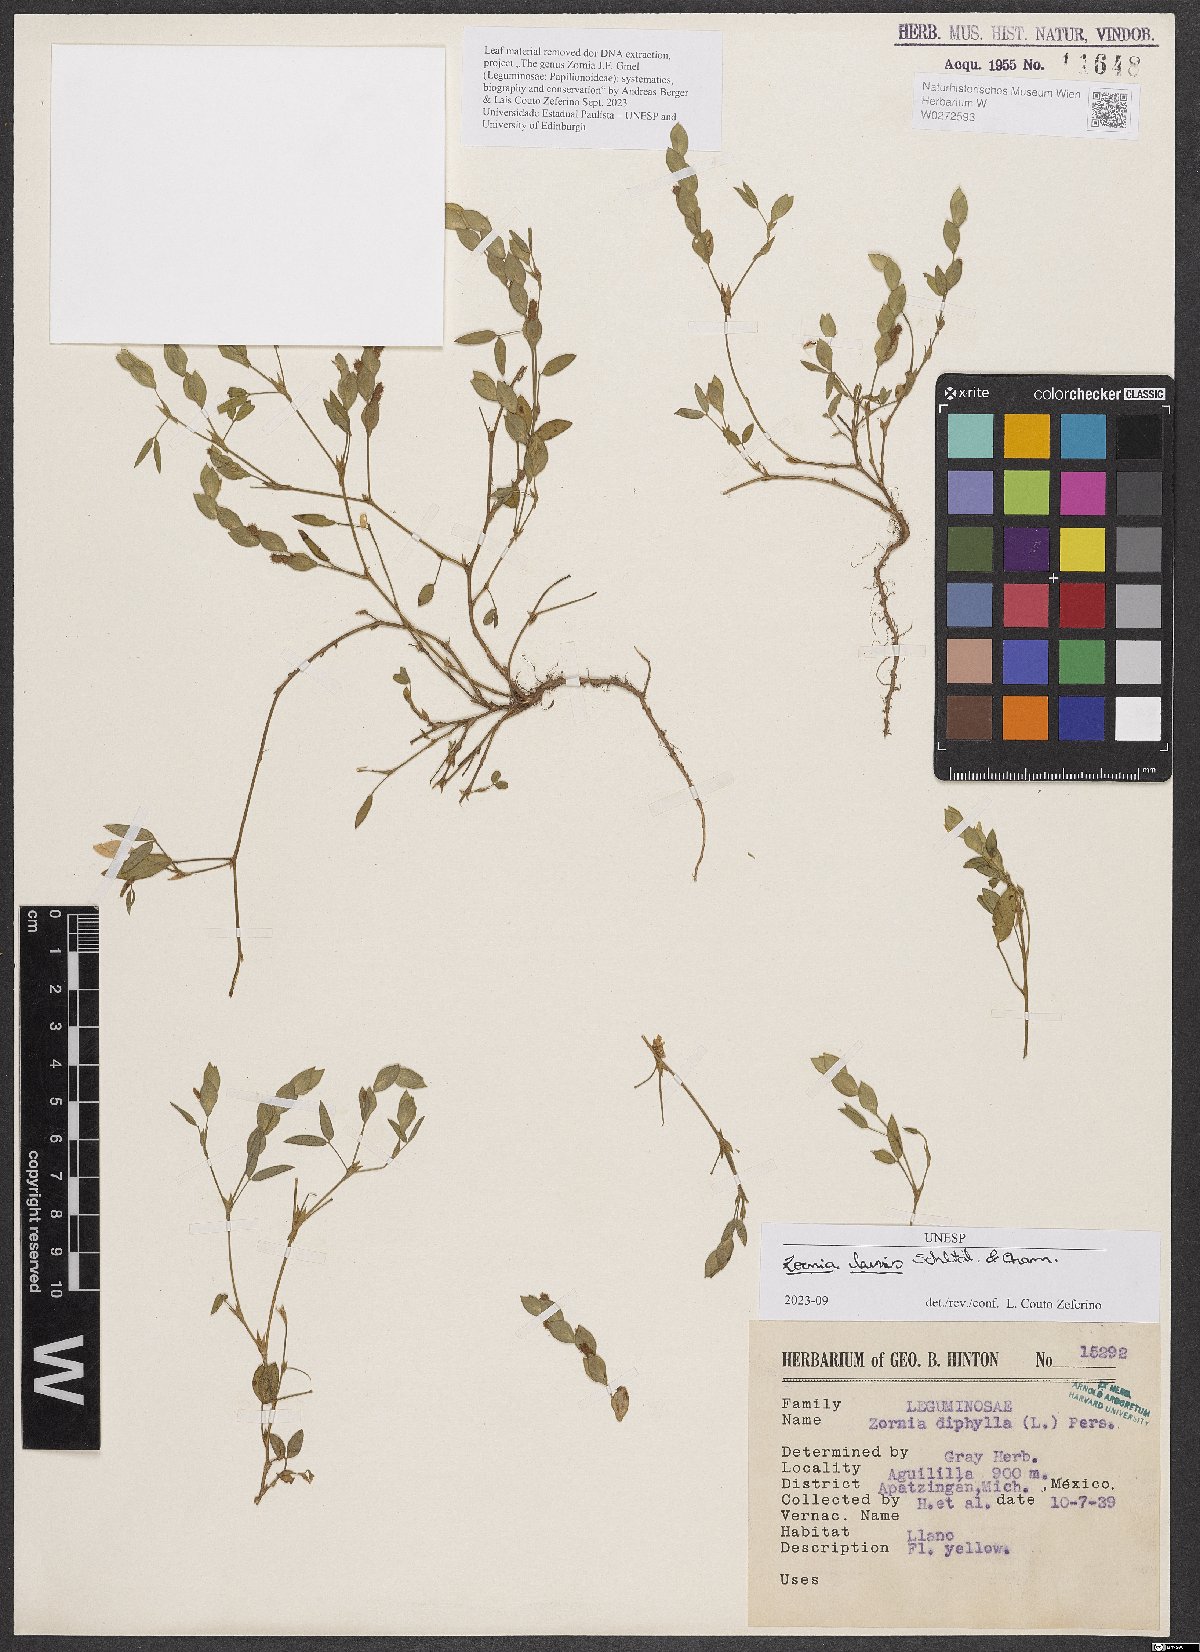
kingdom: Plantae
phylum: Tracheophyta
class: Magnoliopsida
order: Fabales
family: Fabaceae
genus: Zornia
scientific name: Zornia laevis
